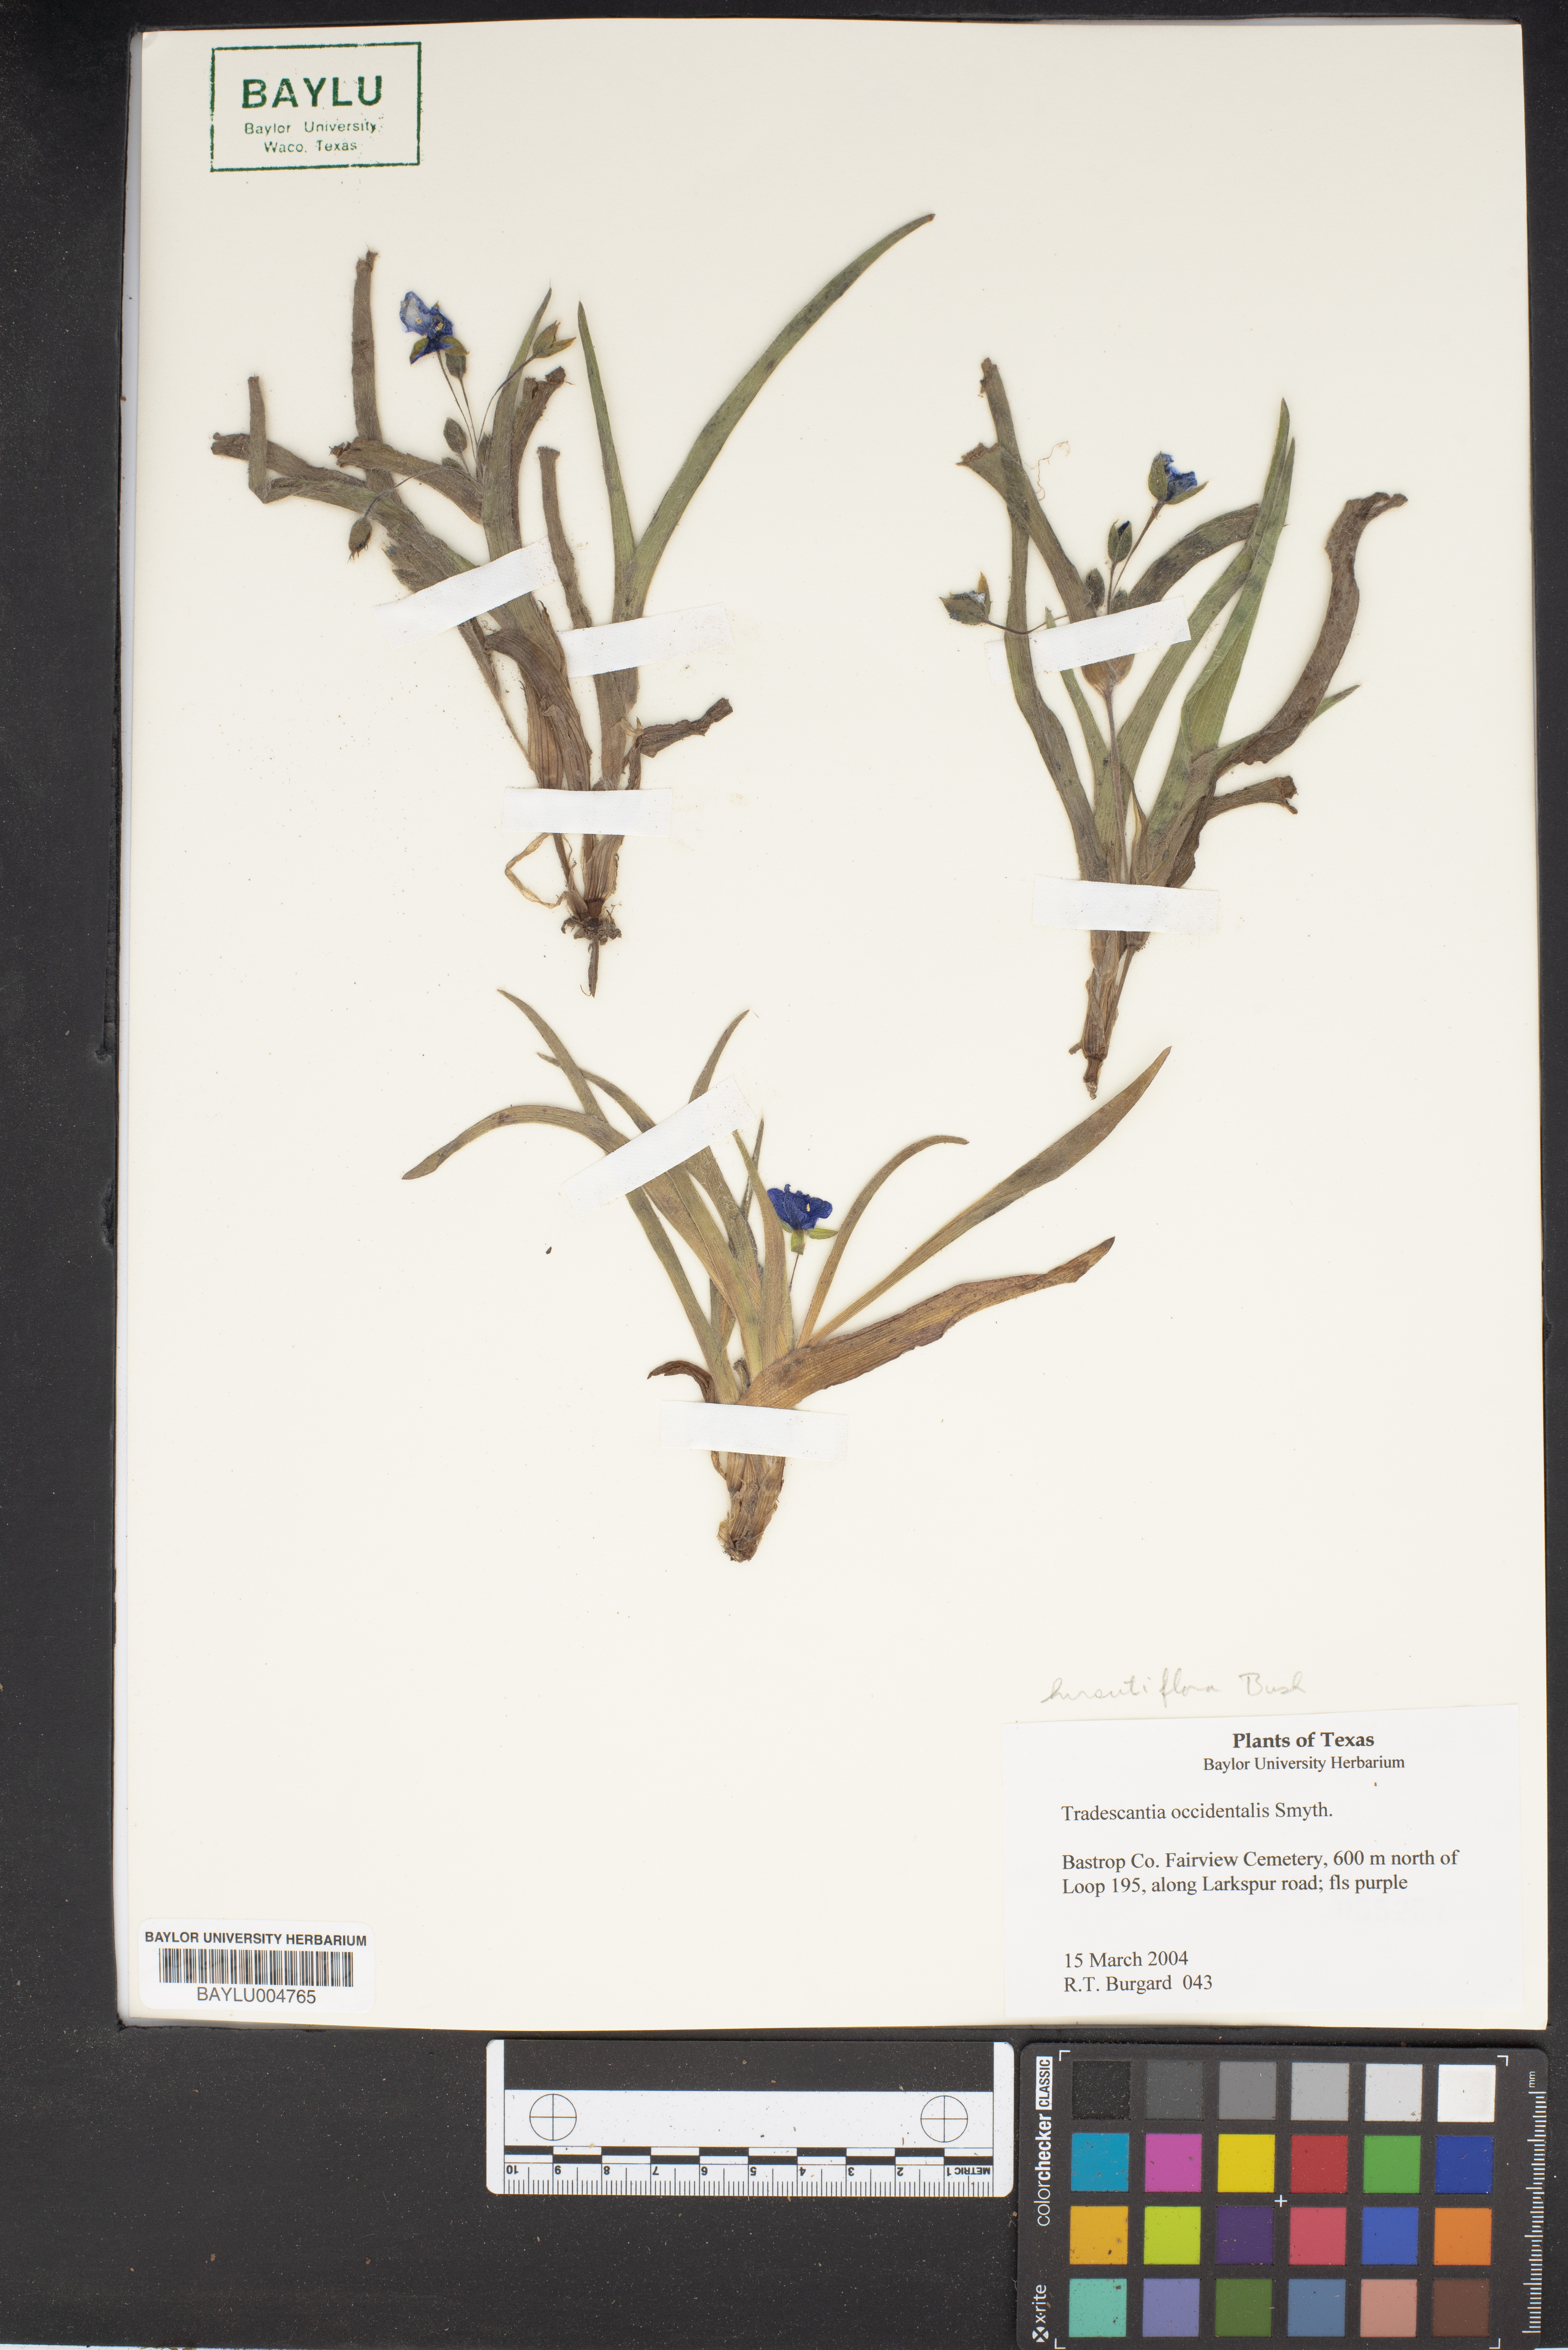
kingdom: Plantae
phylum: Tracheophyta
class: Liliopsida
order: Commelinales
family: Commelinaceae
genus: Tradescantia
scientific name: Tradescantia occidentalis
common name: Prairie spiderwort
